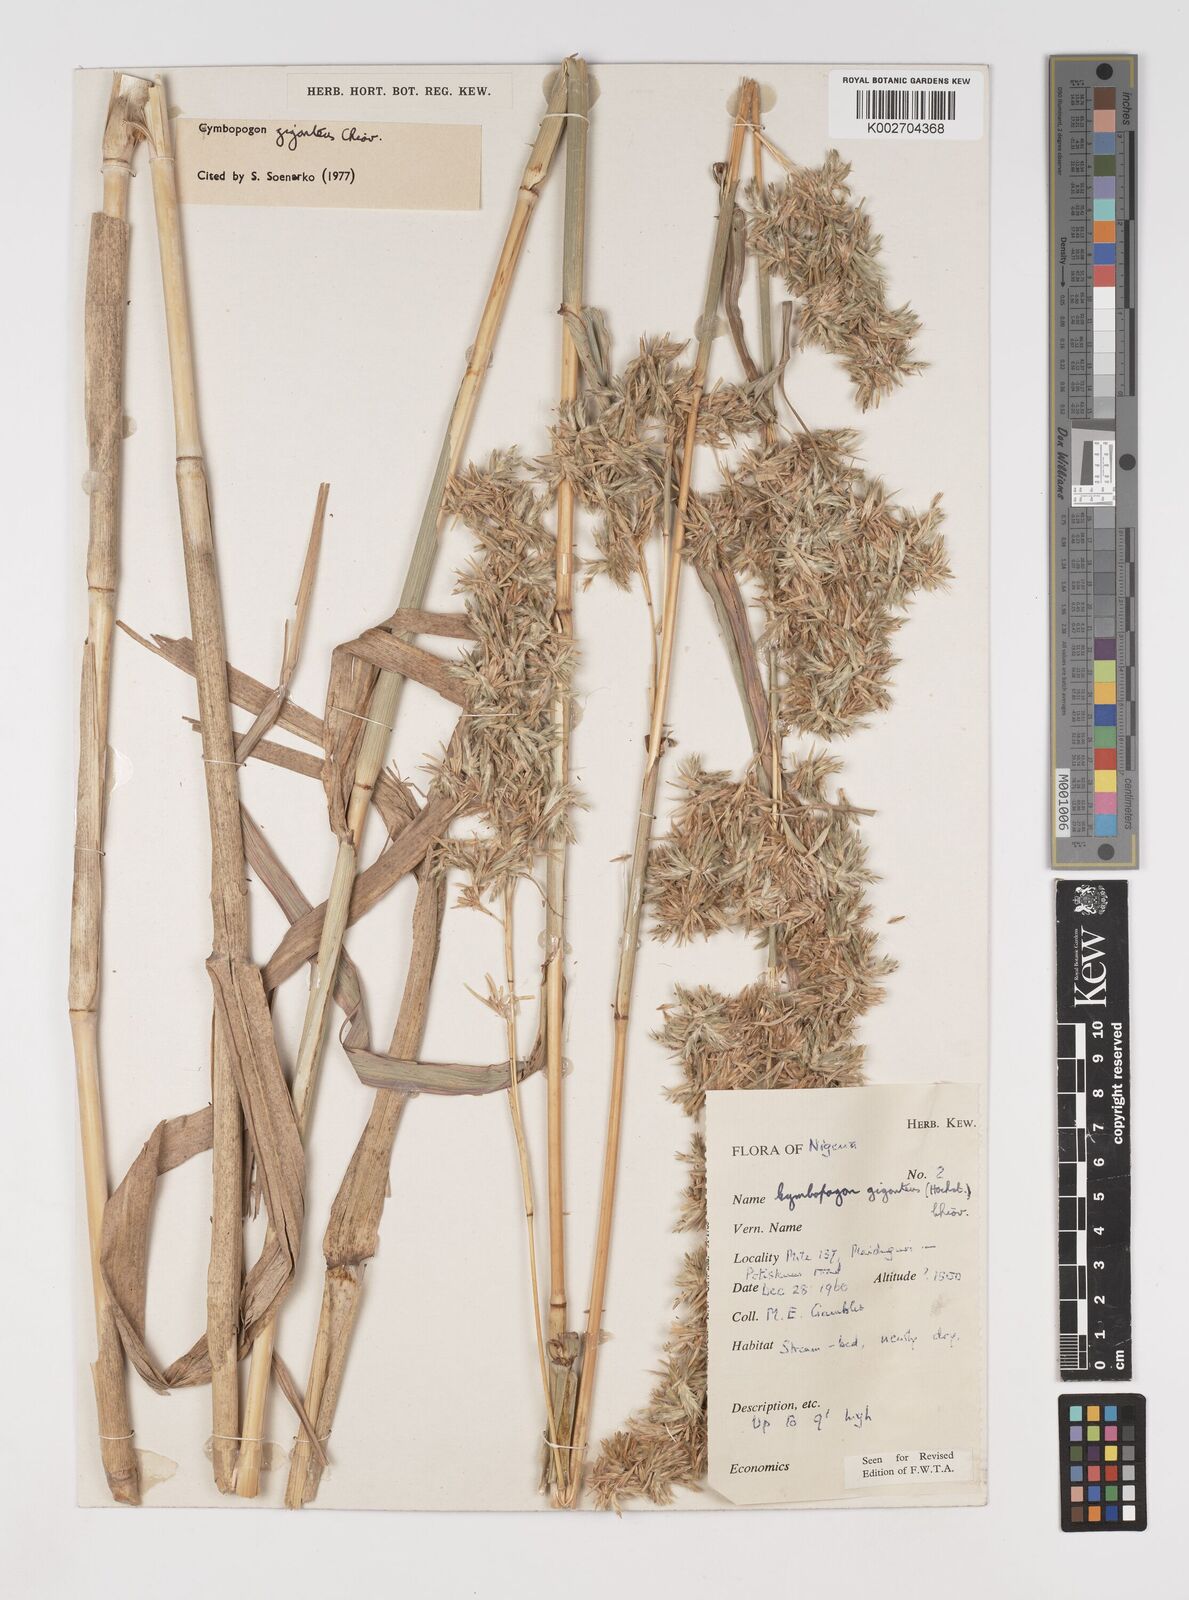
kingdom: Plantae
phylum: Tracheophyta
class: Liliopsida
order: Poales
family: Poaceae
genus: Cymbopogon
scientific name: Cymbopogon giganteus
